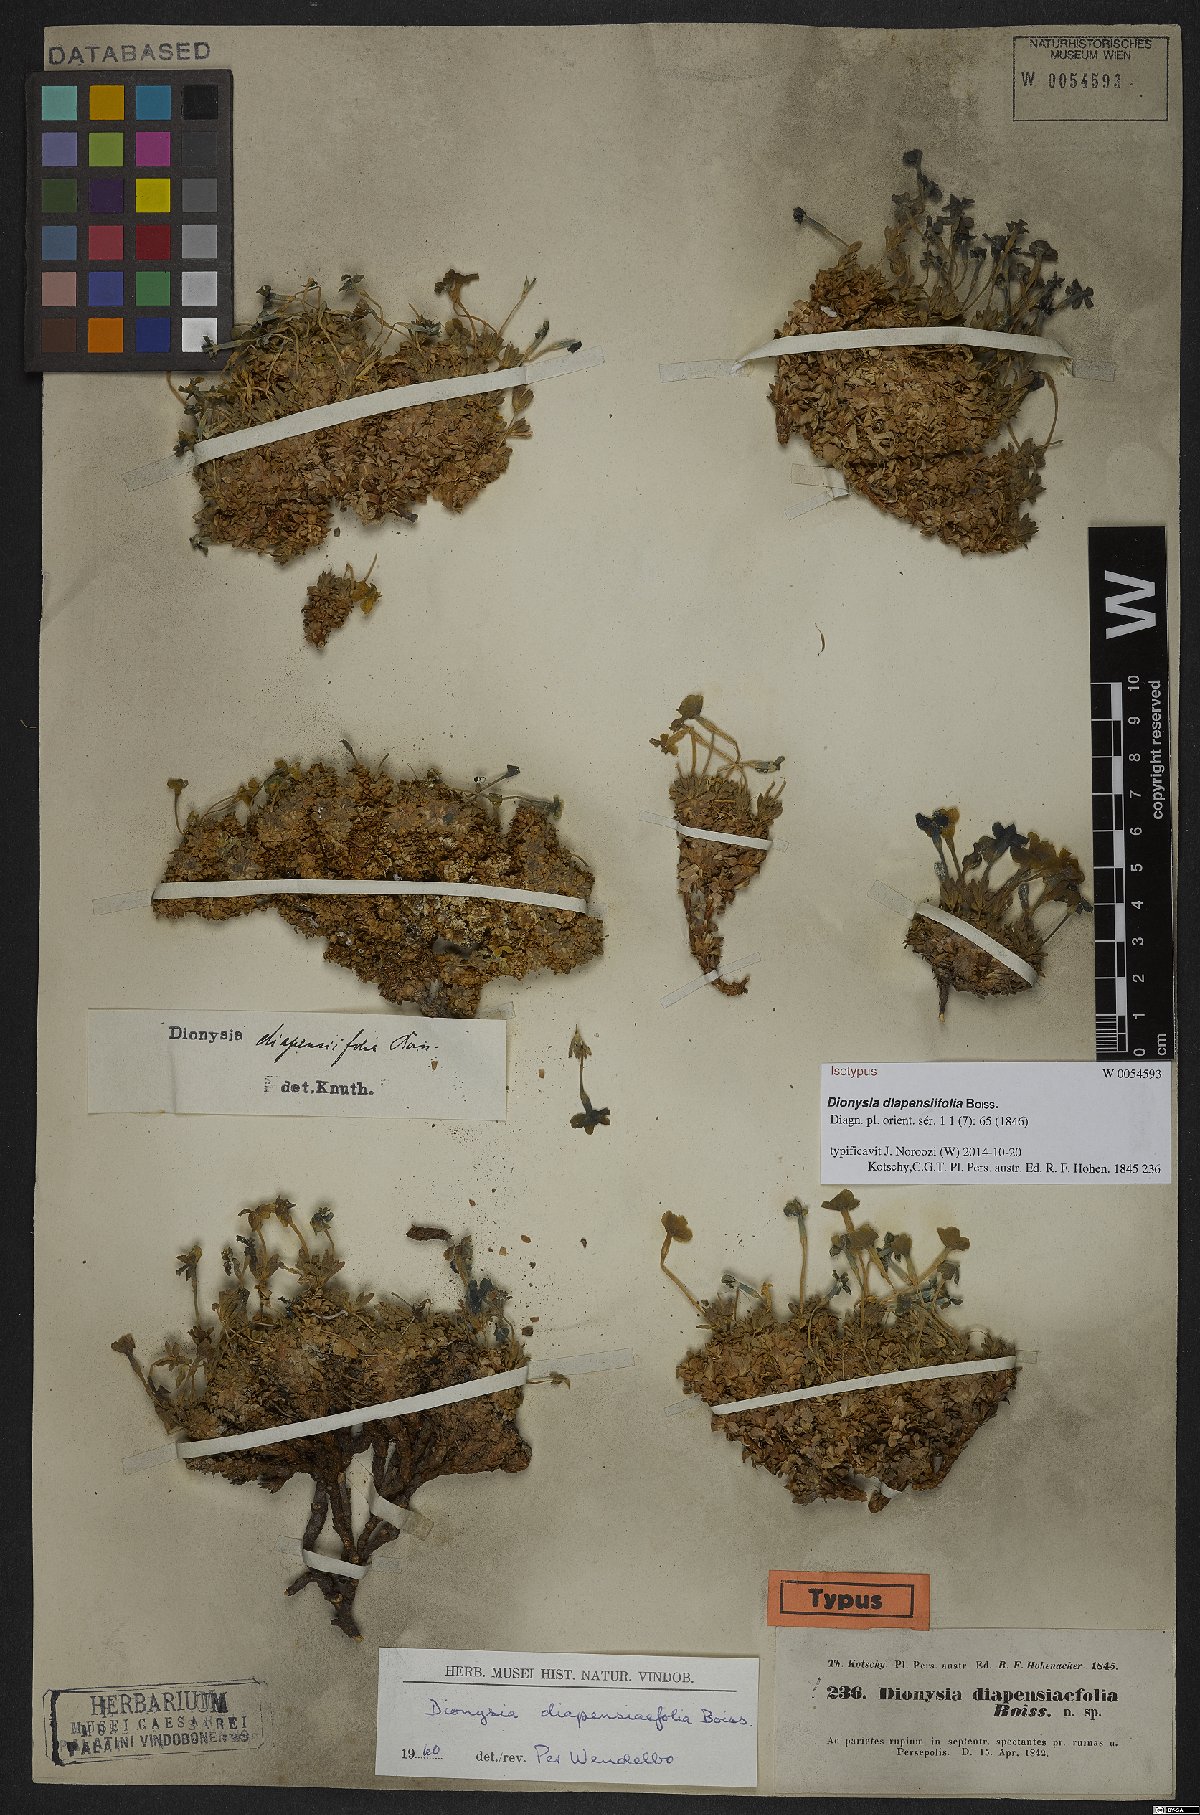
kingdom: Plantae
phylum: Tracheophyta
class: Magnoliopsida
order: Ericales
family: Primulaceae
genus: Dionysia
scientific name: Dionysia diapensiifolia
